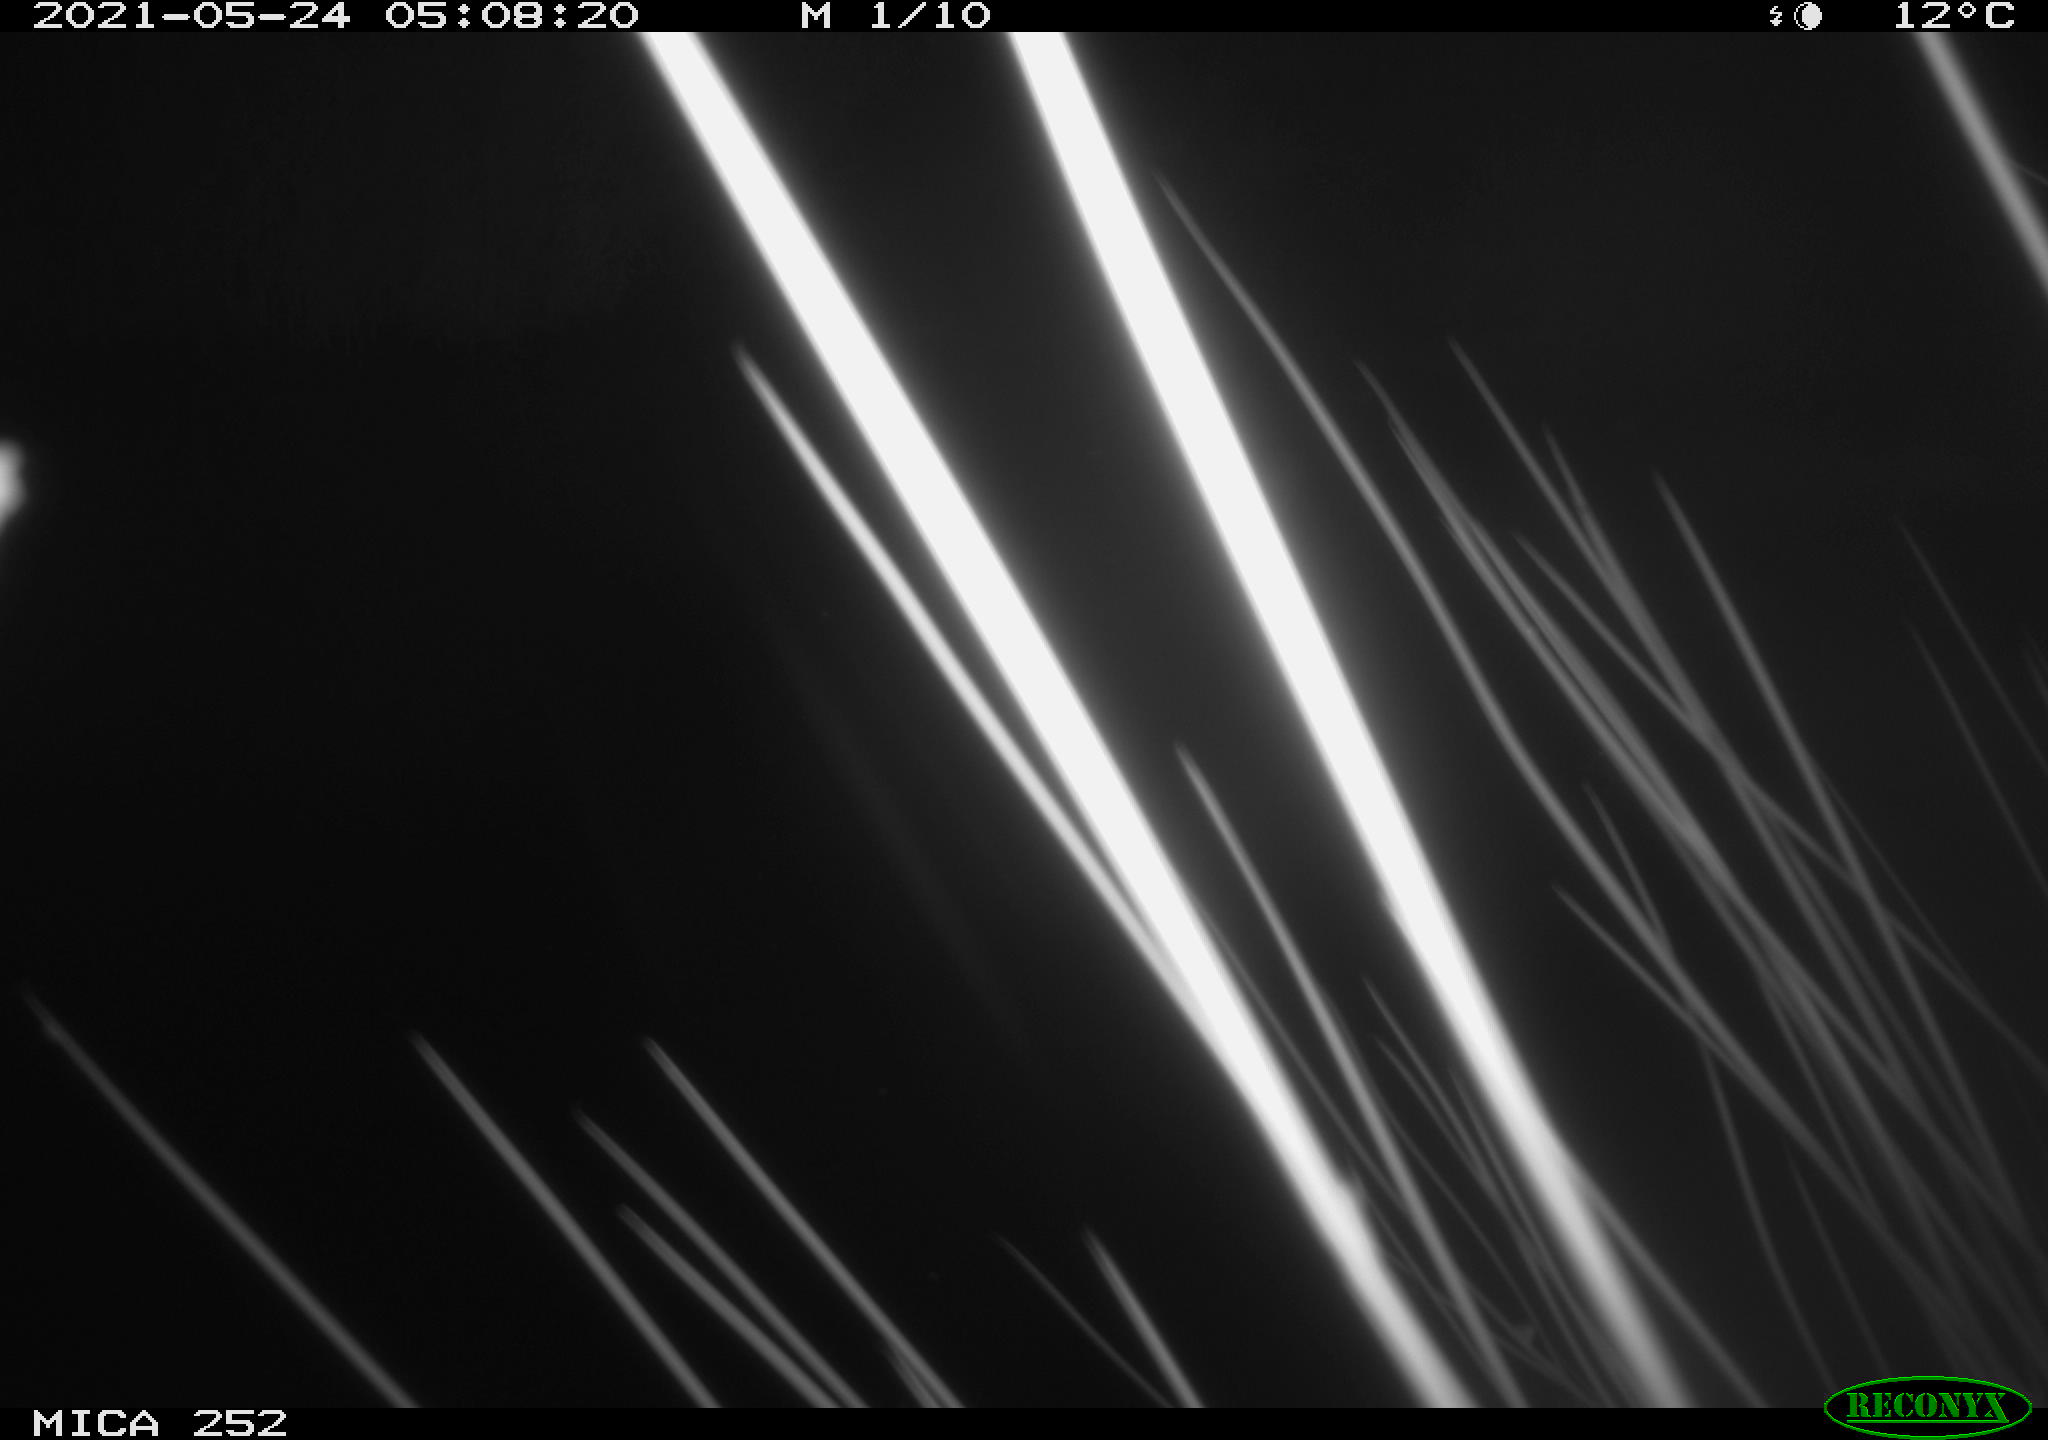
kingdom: Animalia
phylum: Chordata
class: Aves
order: Anseriformes
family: Anatidae
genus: Anas
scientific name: Anas
